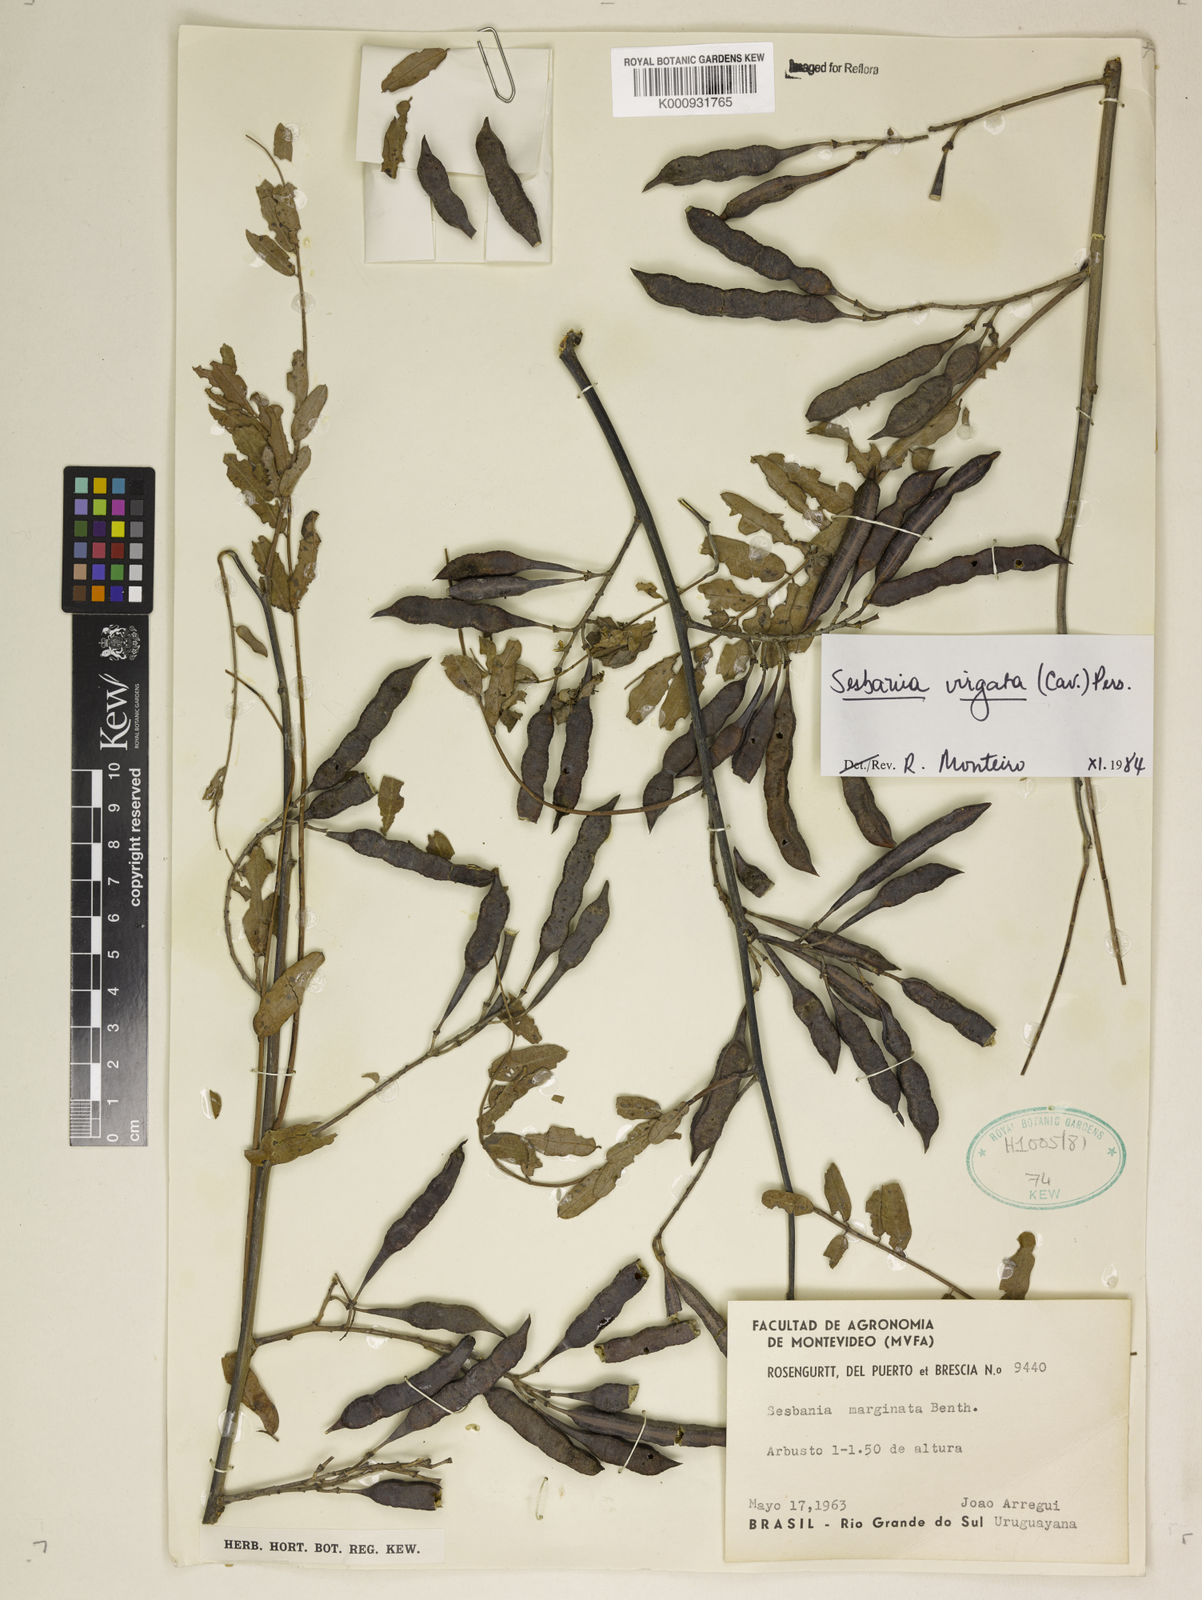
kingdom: Plantae
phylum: Tracheophyta
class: Magnoliopsida
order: Fabales
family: Fabaceae
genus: Sesbania
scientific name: Sesbania
